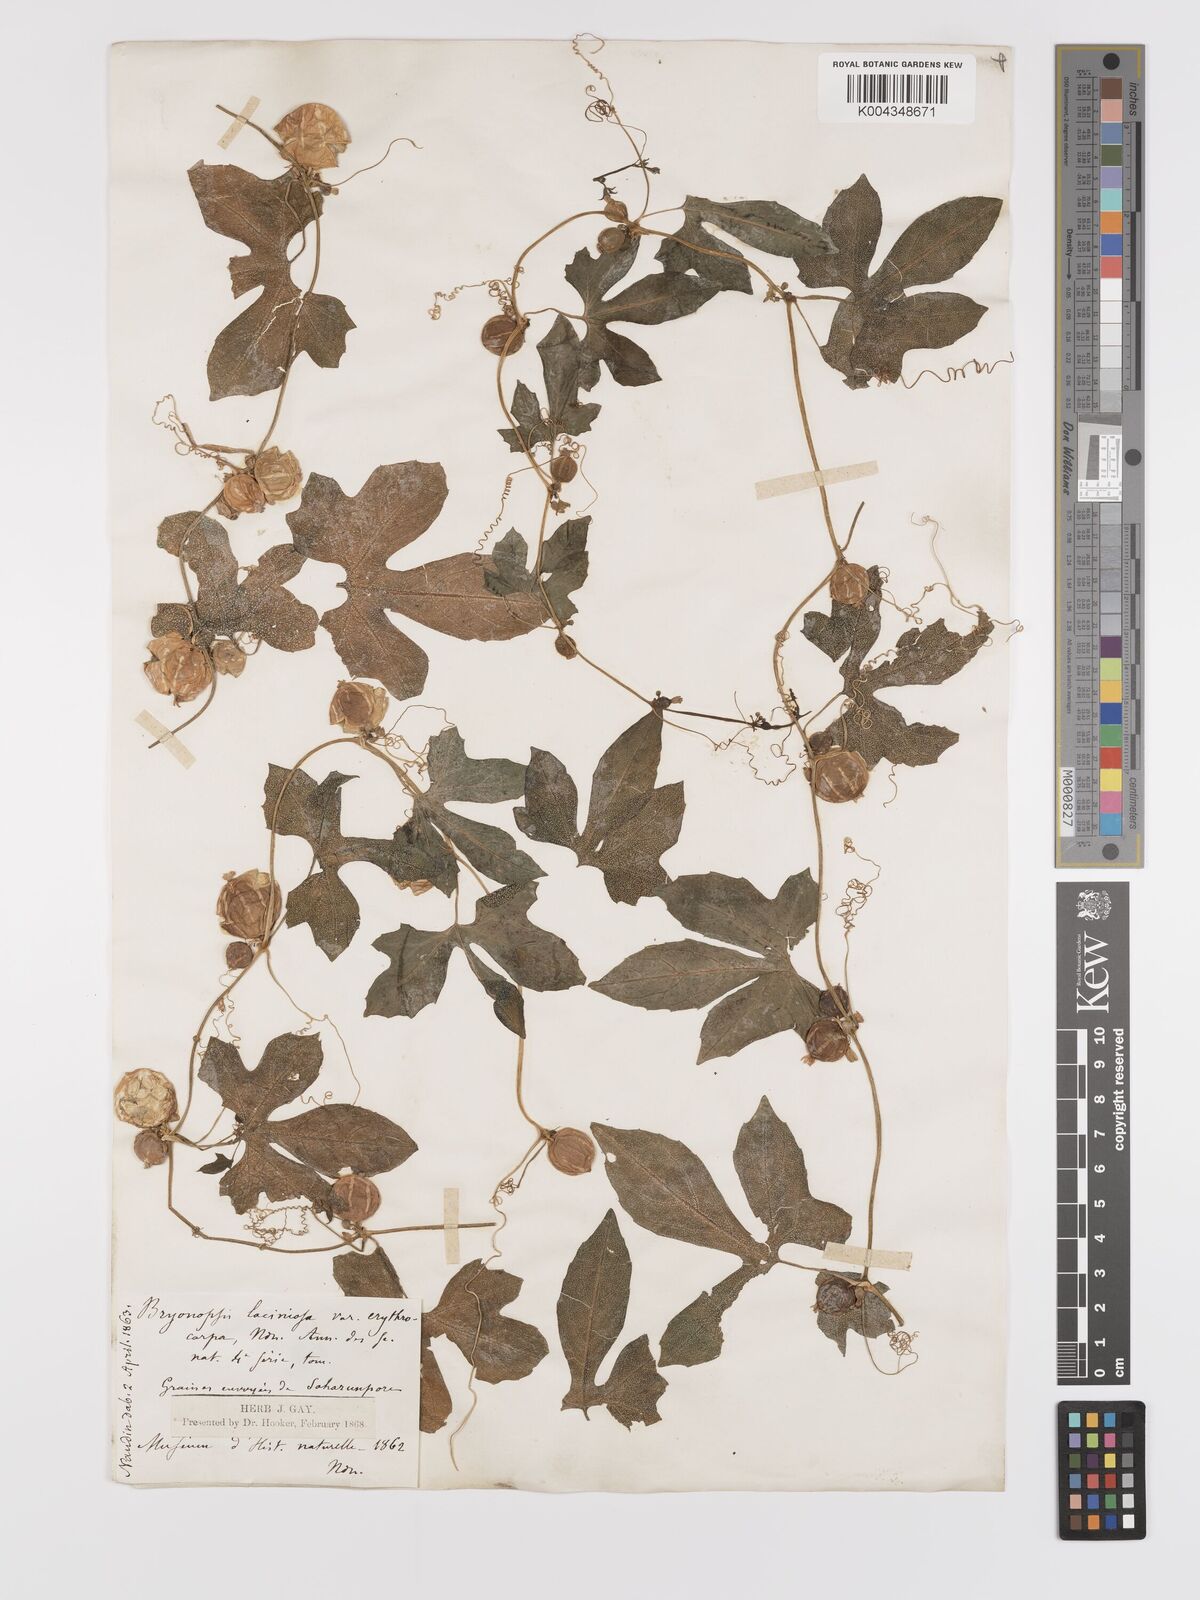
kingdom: Plantae
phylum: Tracheophyta
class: Magnoliopsida
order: Cucurbitales
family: Cucurbitaceae
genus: Diplocyclos
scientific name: Diplocyclos palmatus
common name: Striped-cucumber
